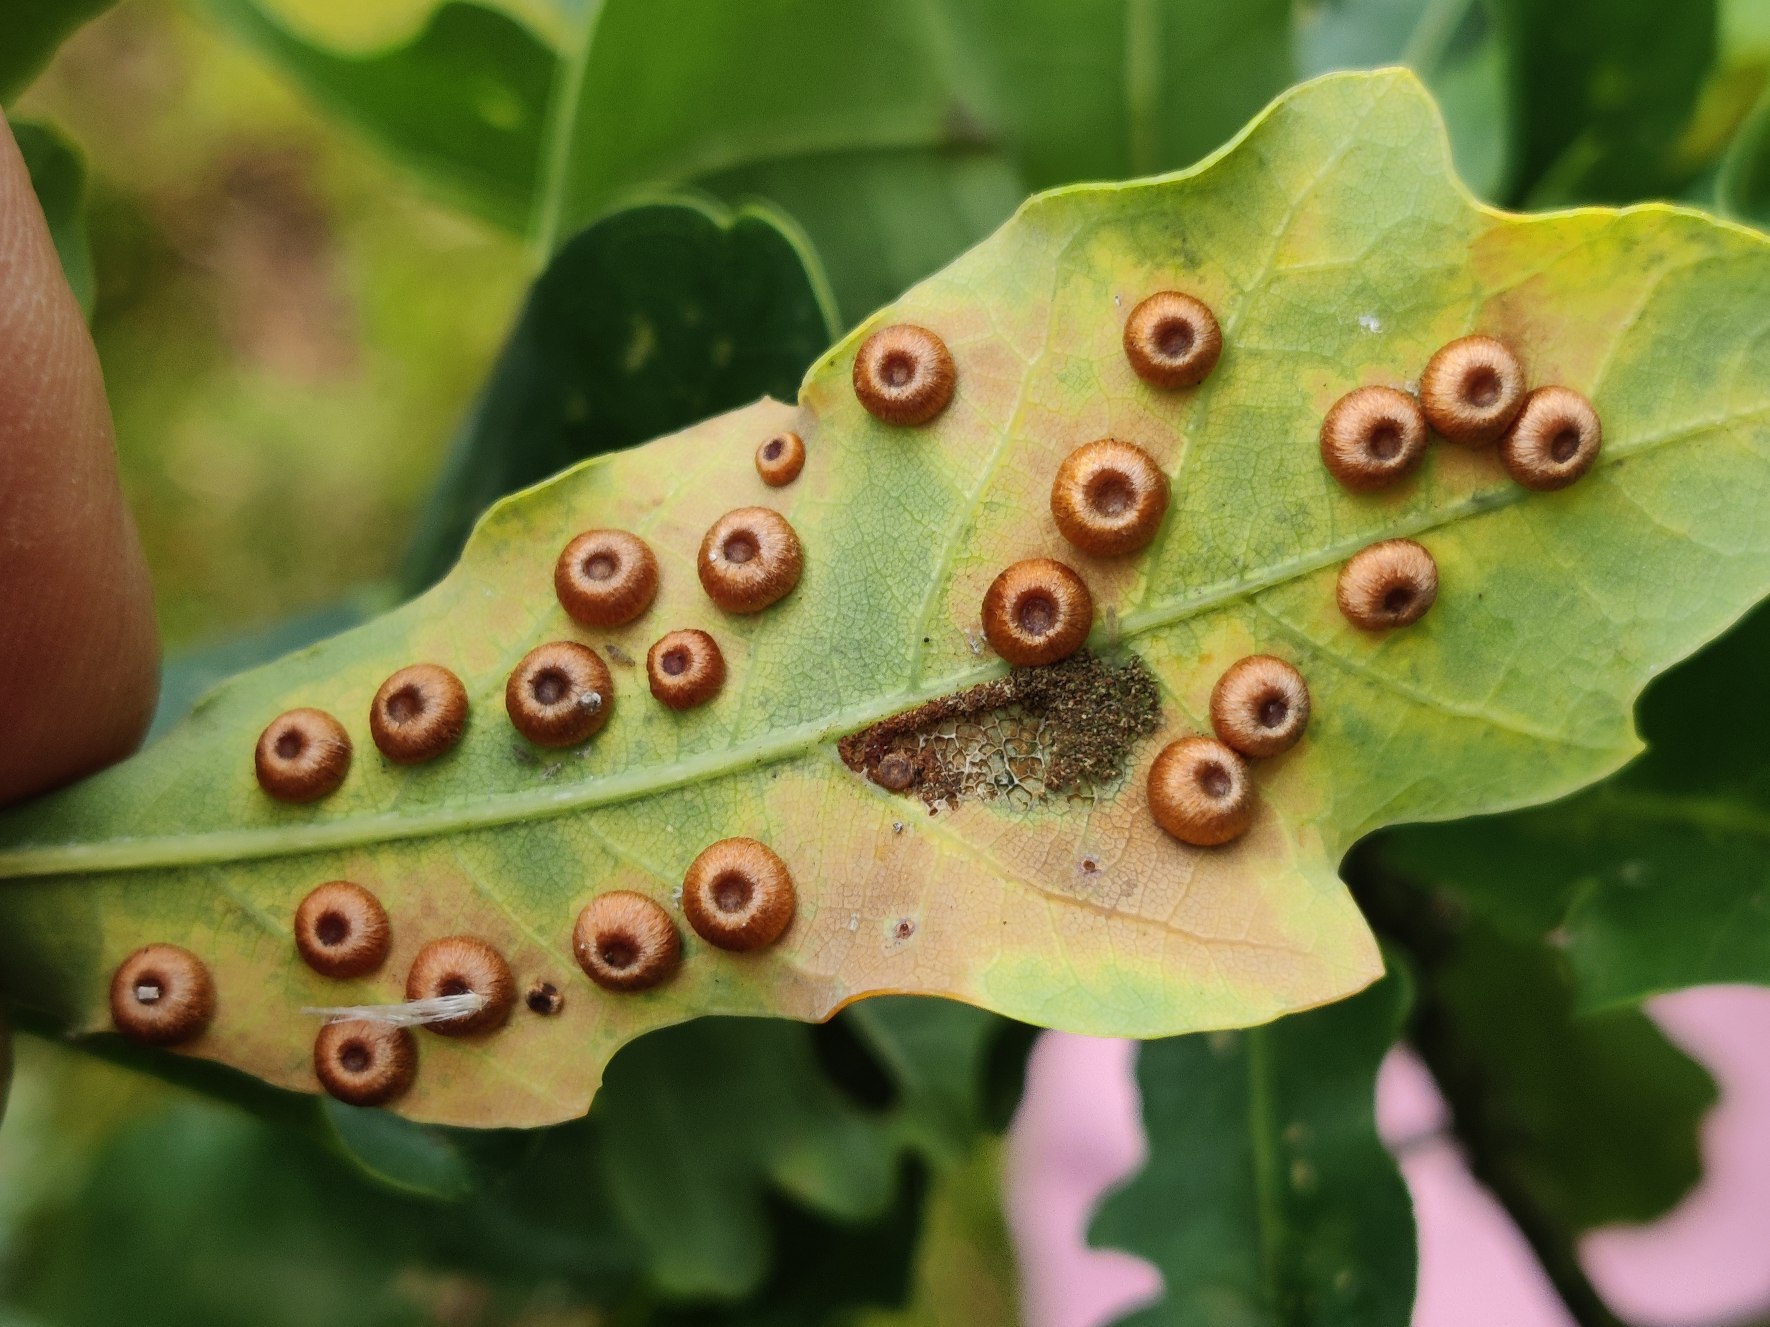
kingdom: Animalia
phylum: Arthropoda
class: Insecta
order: Hymenoptera
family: Cynipidae
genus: Neuroterus
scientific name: Neuroterus numismalis
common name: Knapgalhveps
